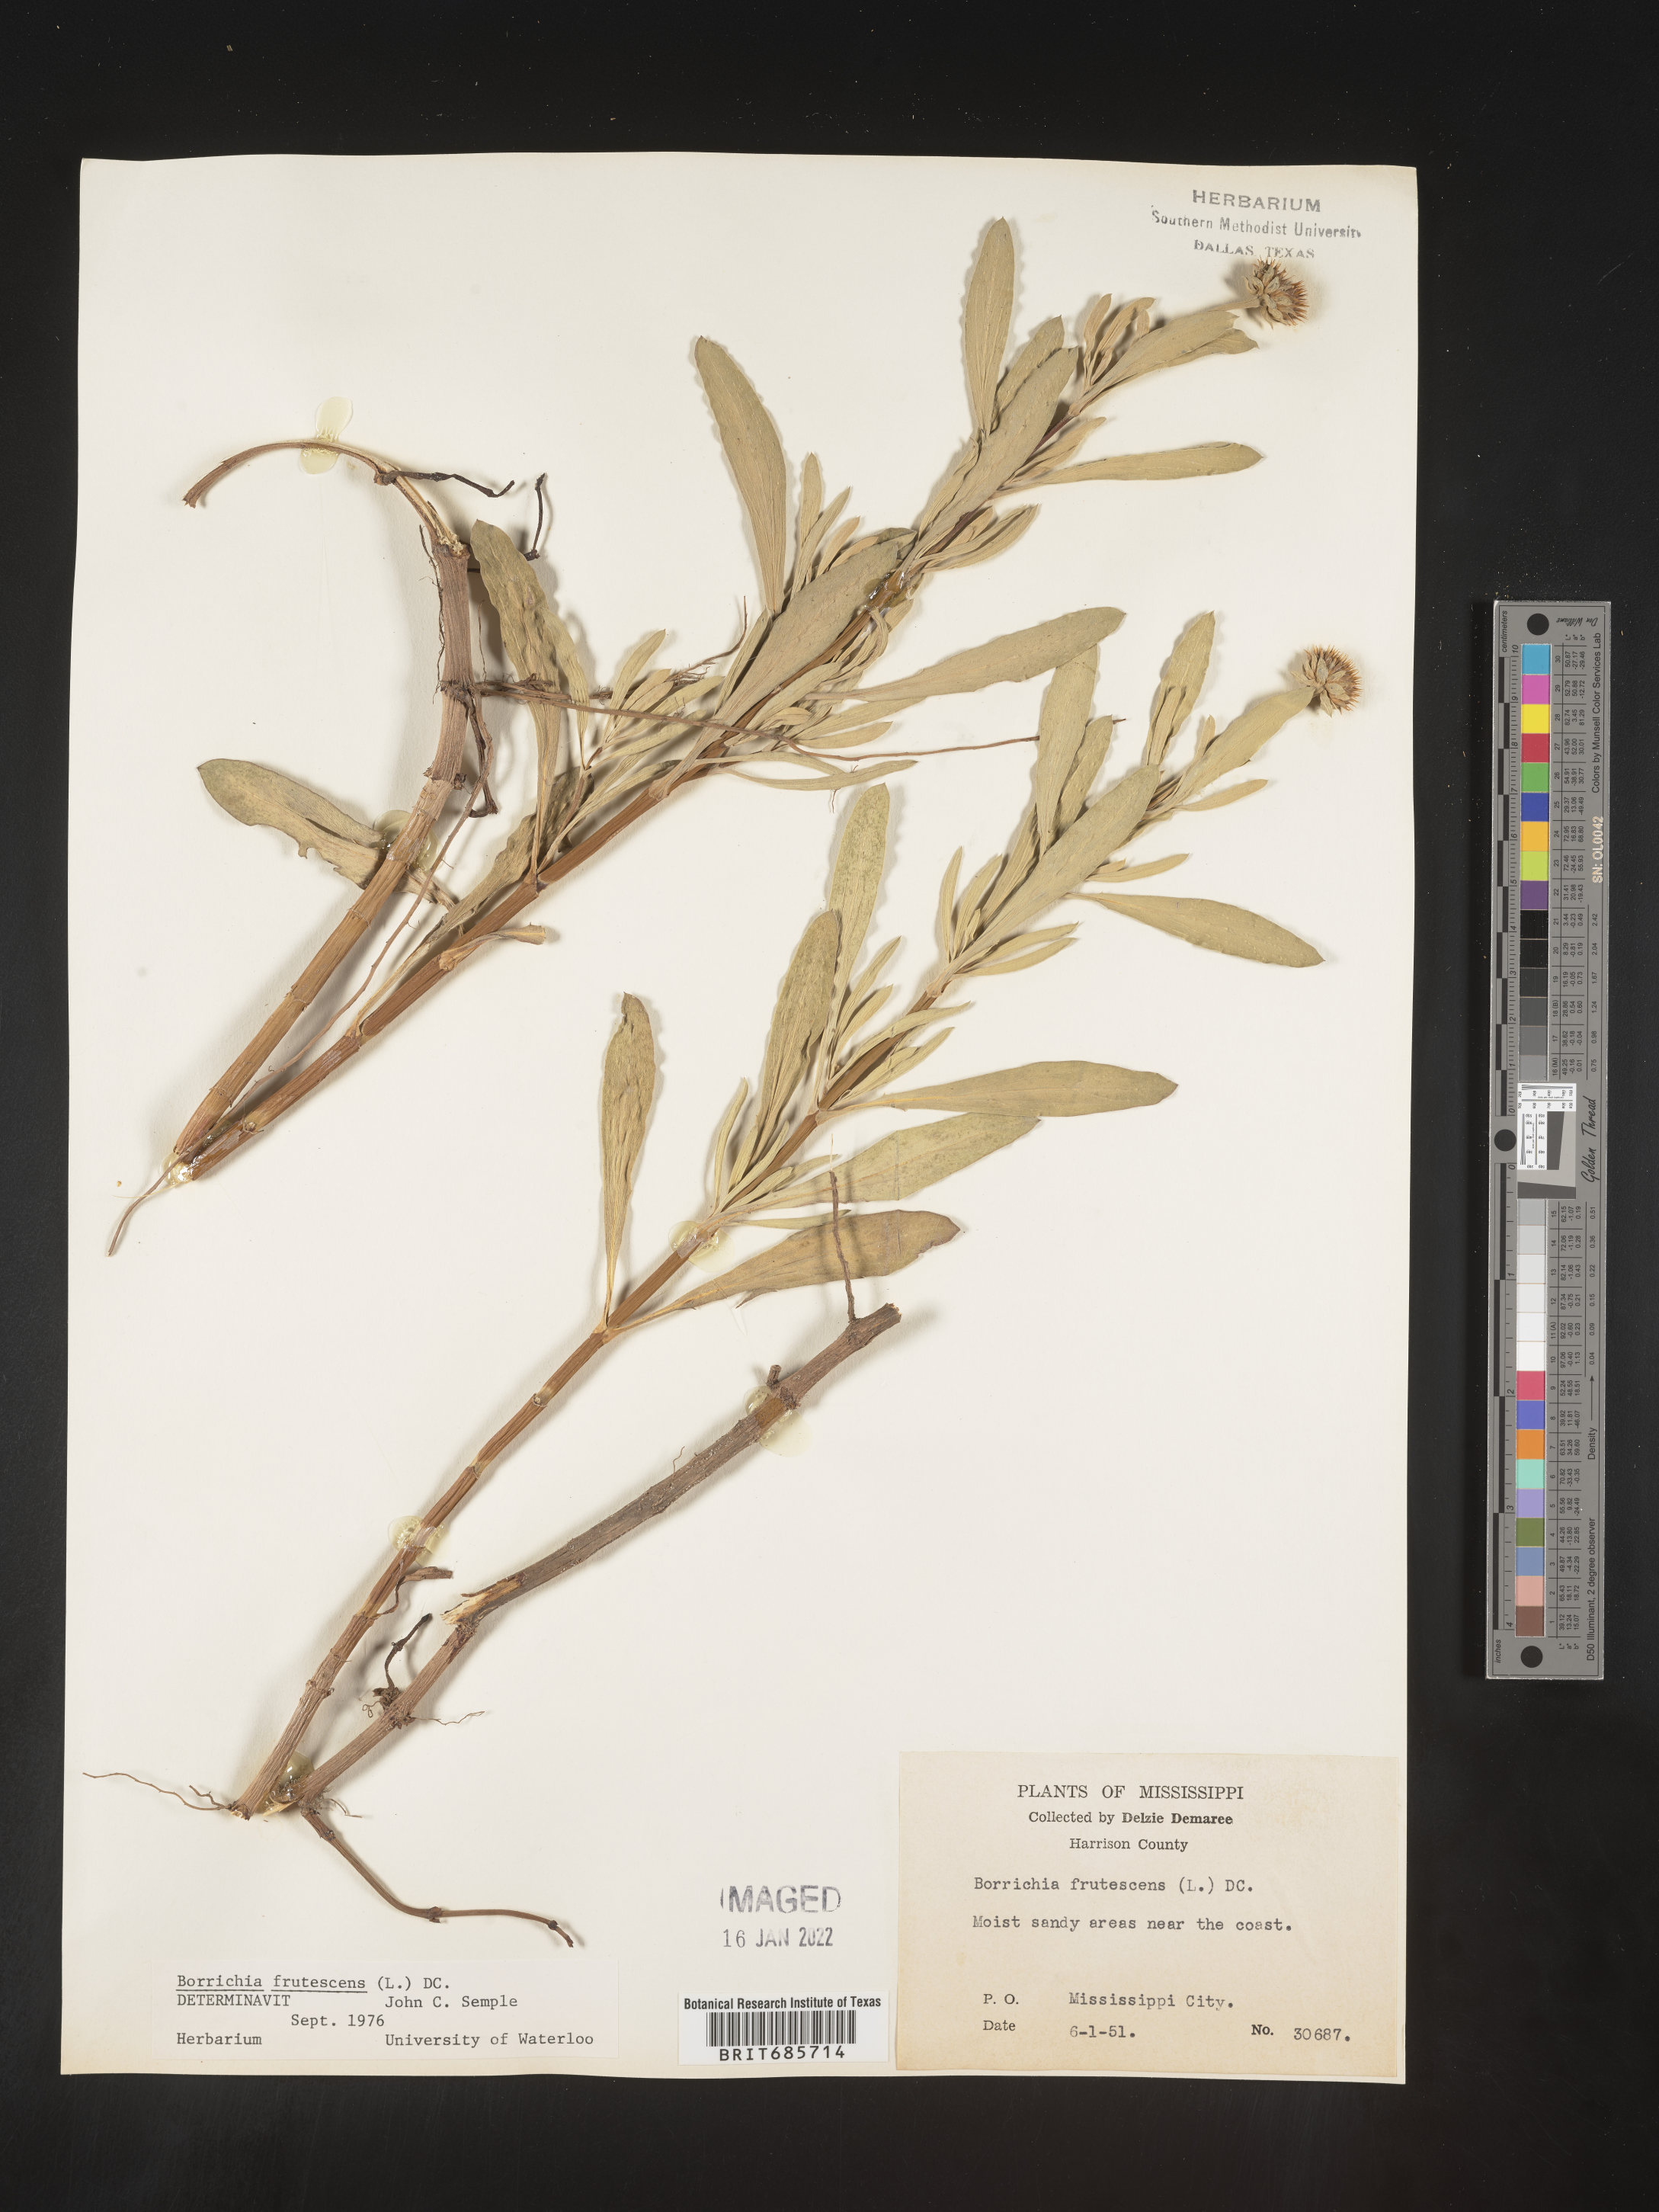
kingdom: Plantae
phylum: Tracheophyta
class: Magnoliopsida
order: Asterales
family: Asteraceae
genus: Borrichia
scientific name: Borrichia frutescens
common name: Sea oxeye
